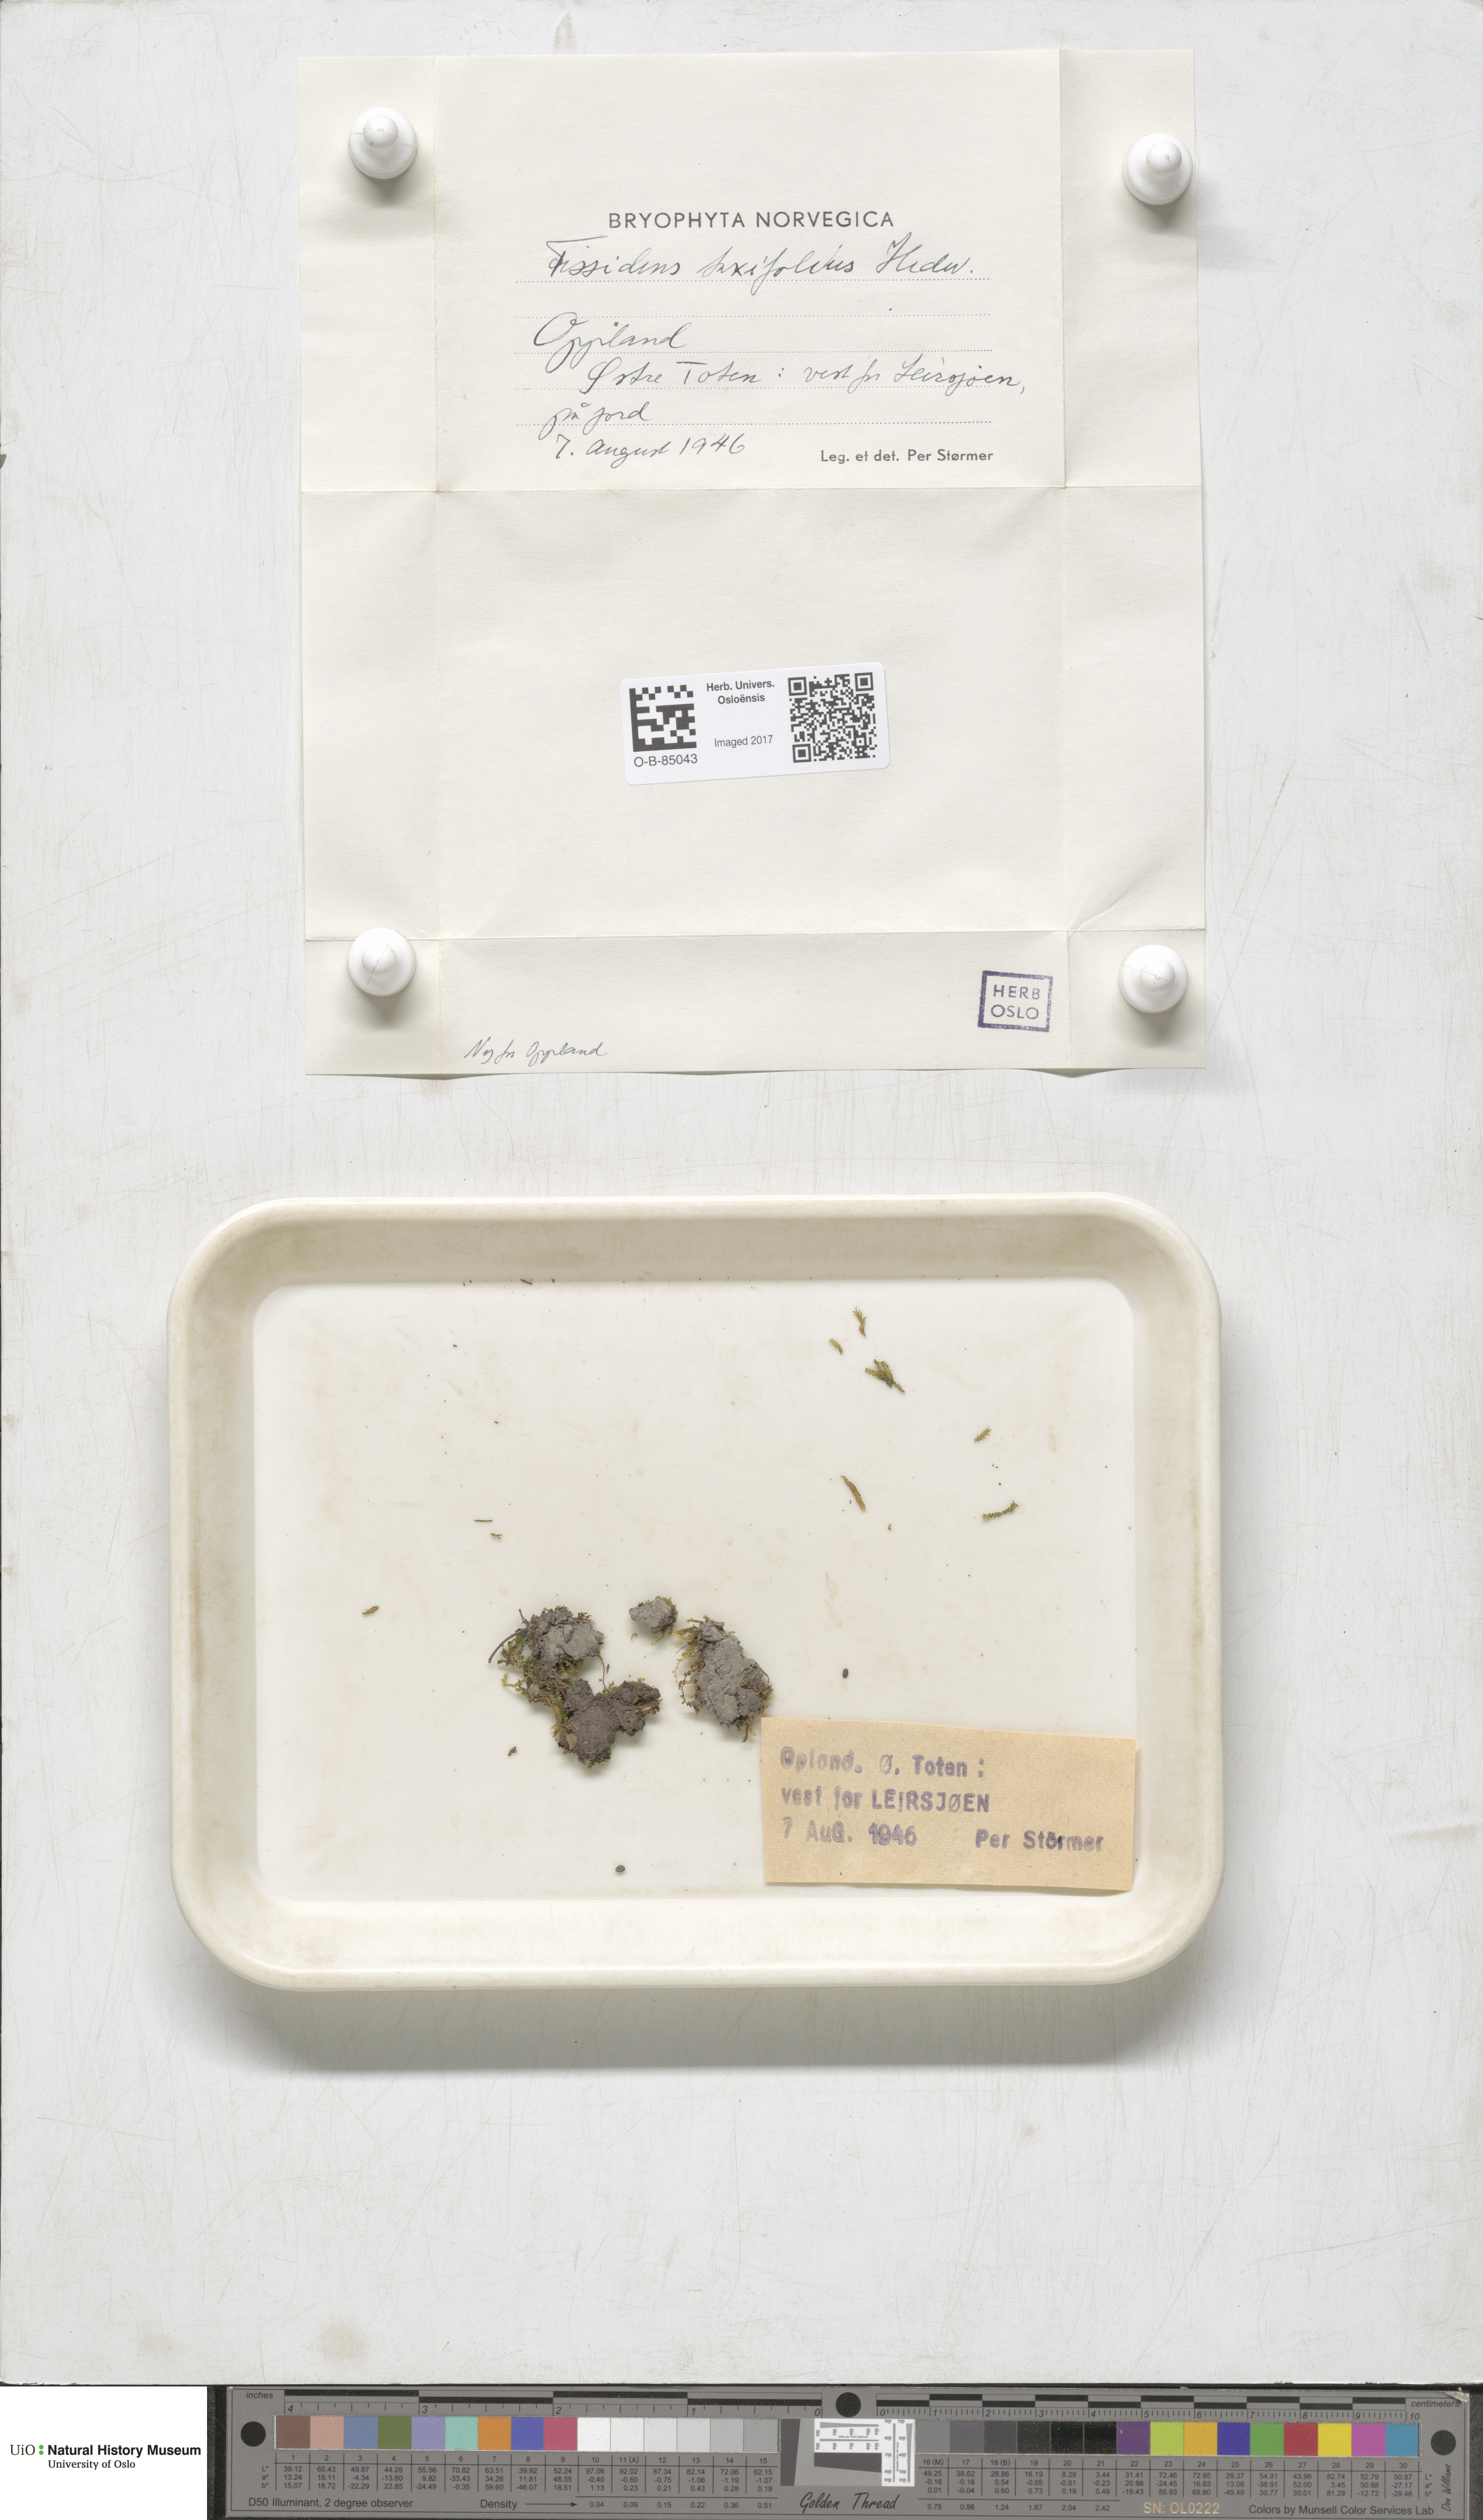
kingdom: Plantae
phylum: Bryophyta
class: Bryopsida
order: Dicranales
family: Fissidentaceae
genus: Fissidens
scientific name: Fissidens taxifolius
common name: Yew-leaved pocket moss
